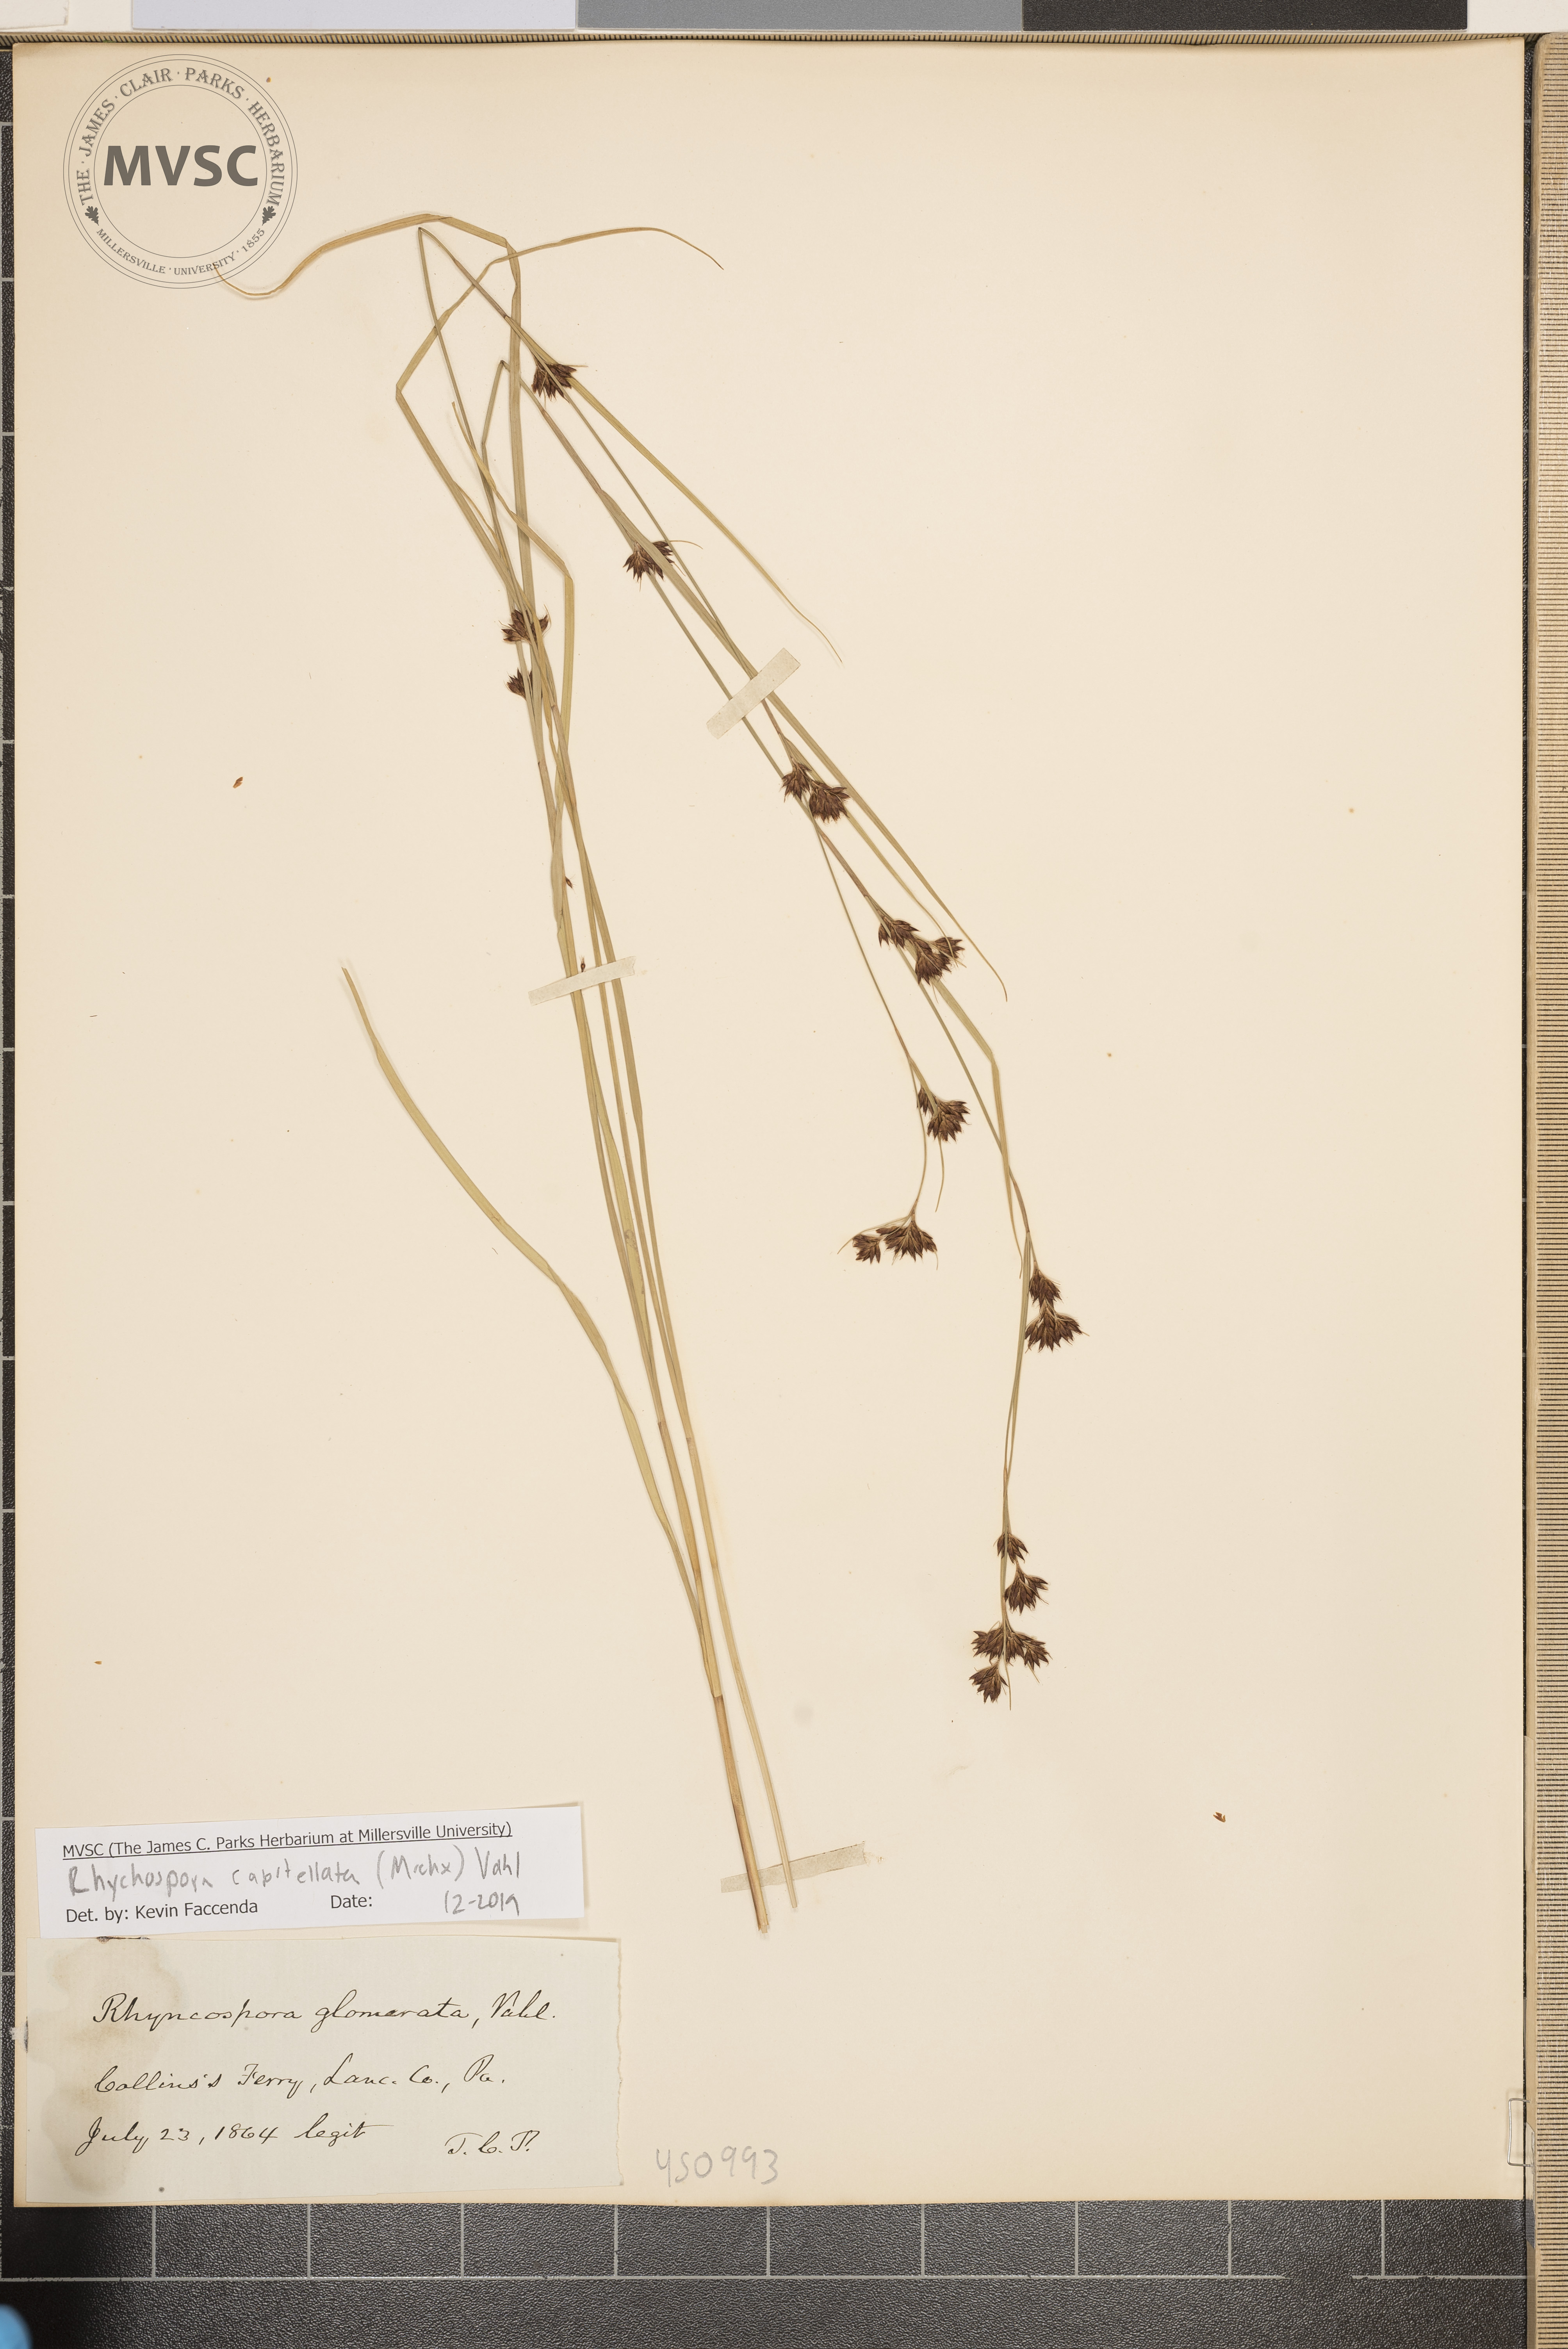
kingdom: Plantae
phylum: Tracheophyta
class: Liliopsida
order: Poales
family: Cyperaceae
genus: Rhynchospora
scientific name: Rhynchospora capitellata
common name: Brownish beaksedge
